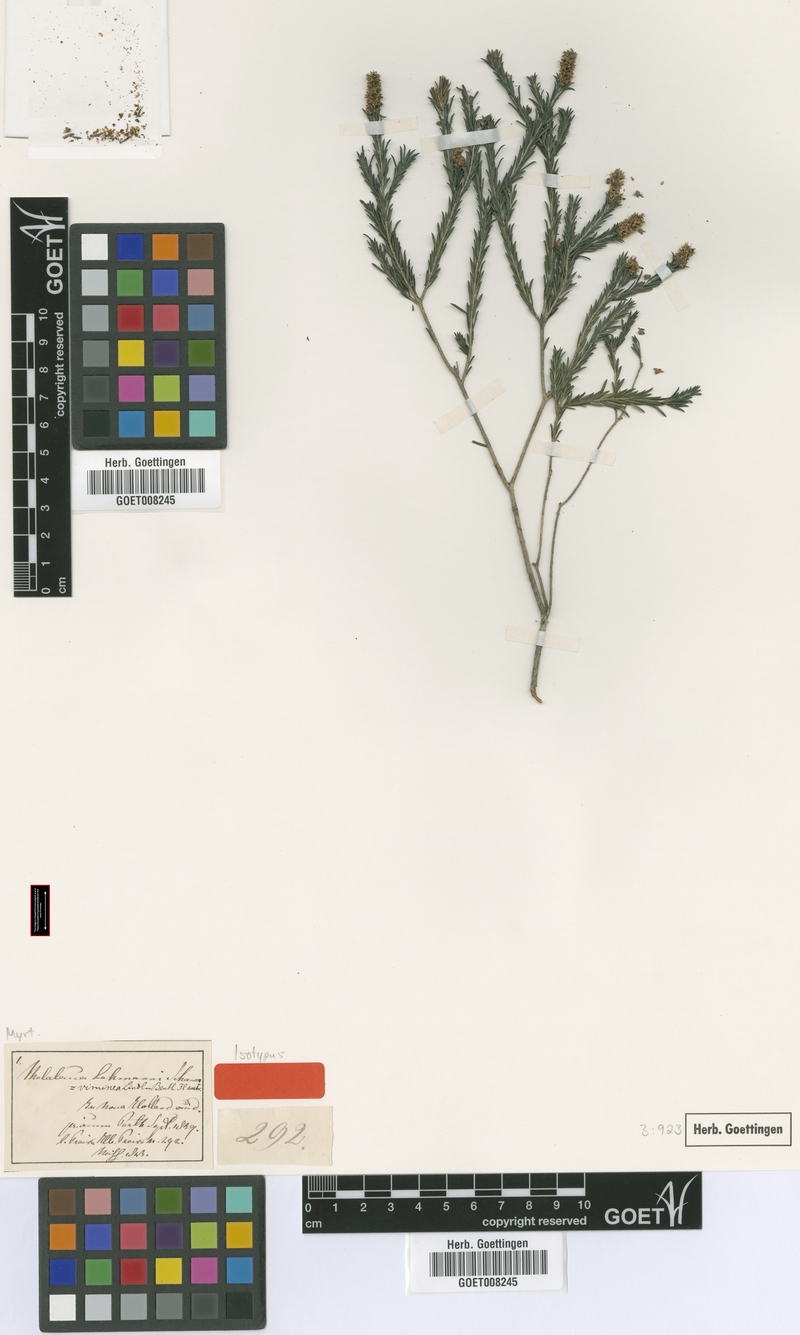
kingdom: Plantae
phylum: Tracheophyta
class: Magnoliopsida
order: Myrtales
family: Myrtaceae
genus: Melaleuca
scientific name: Melaleuca viminea
